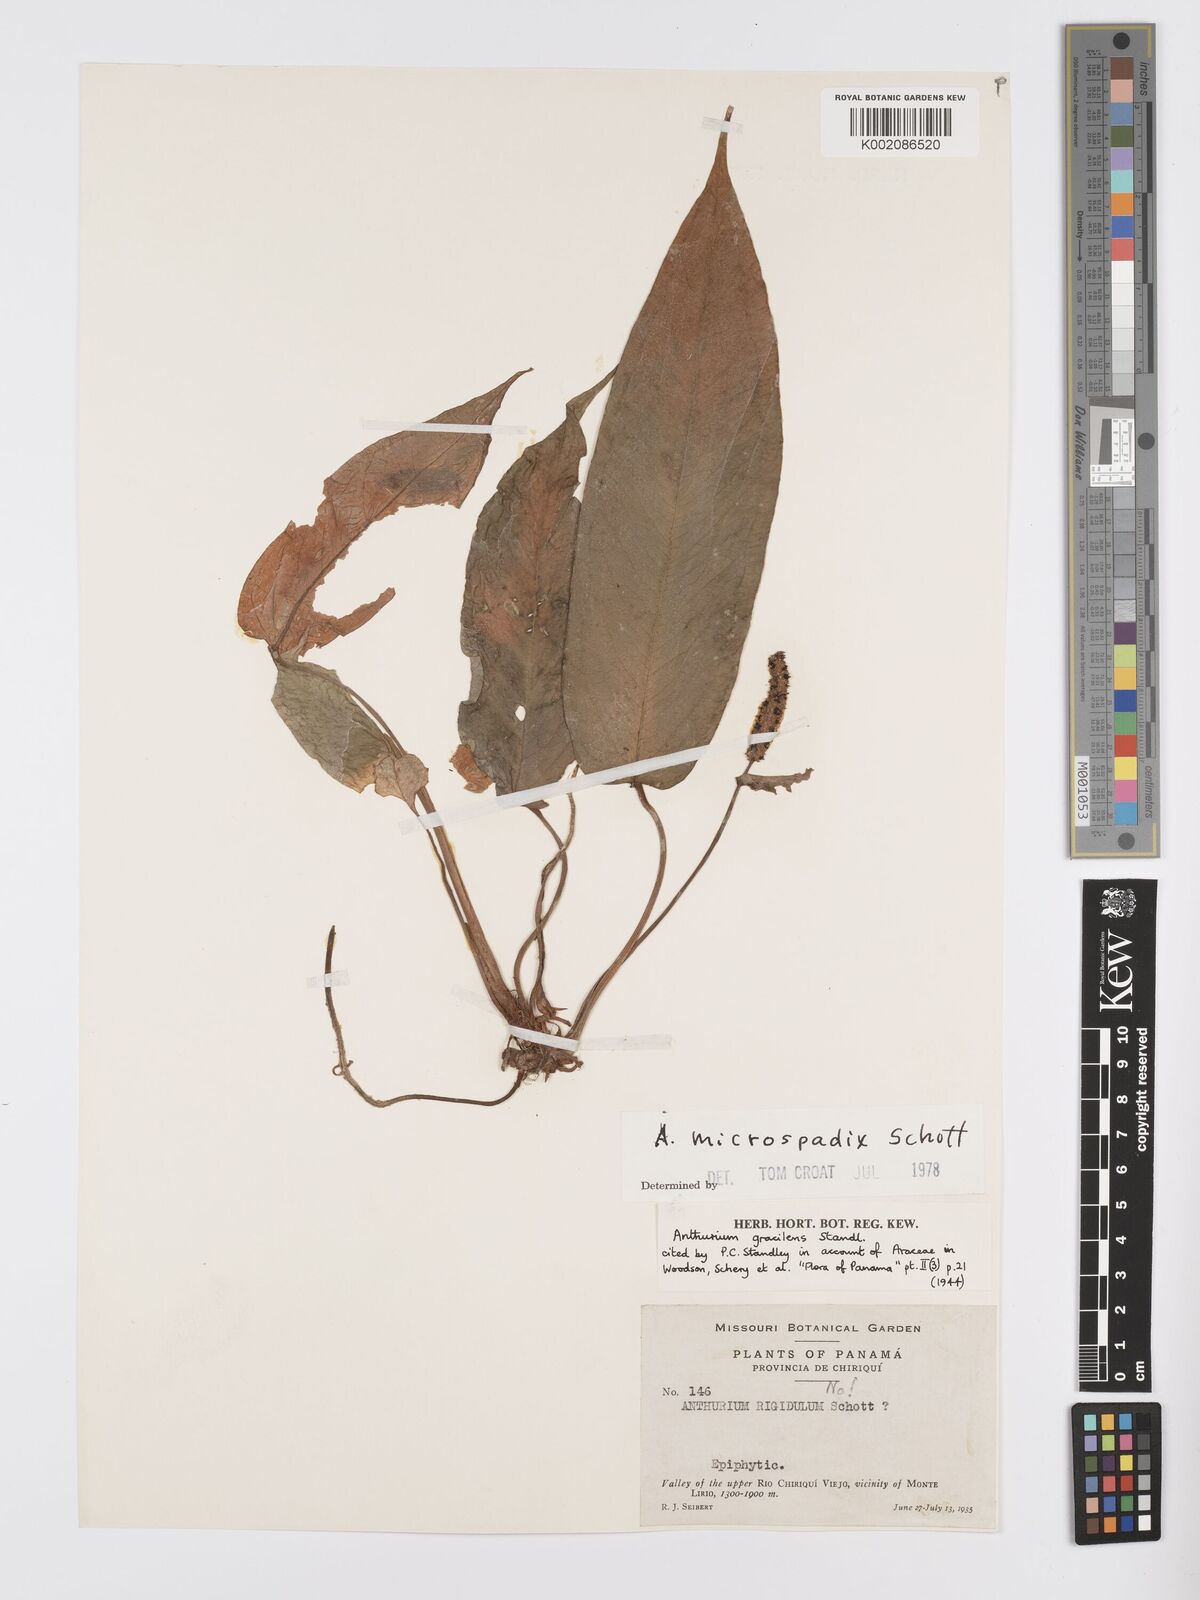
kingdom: Plantae
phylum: Tracheophyta
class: Liliopsida
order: Alismatales
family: Araceae
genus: Anthurium
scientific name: Anthurium microspadix
